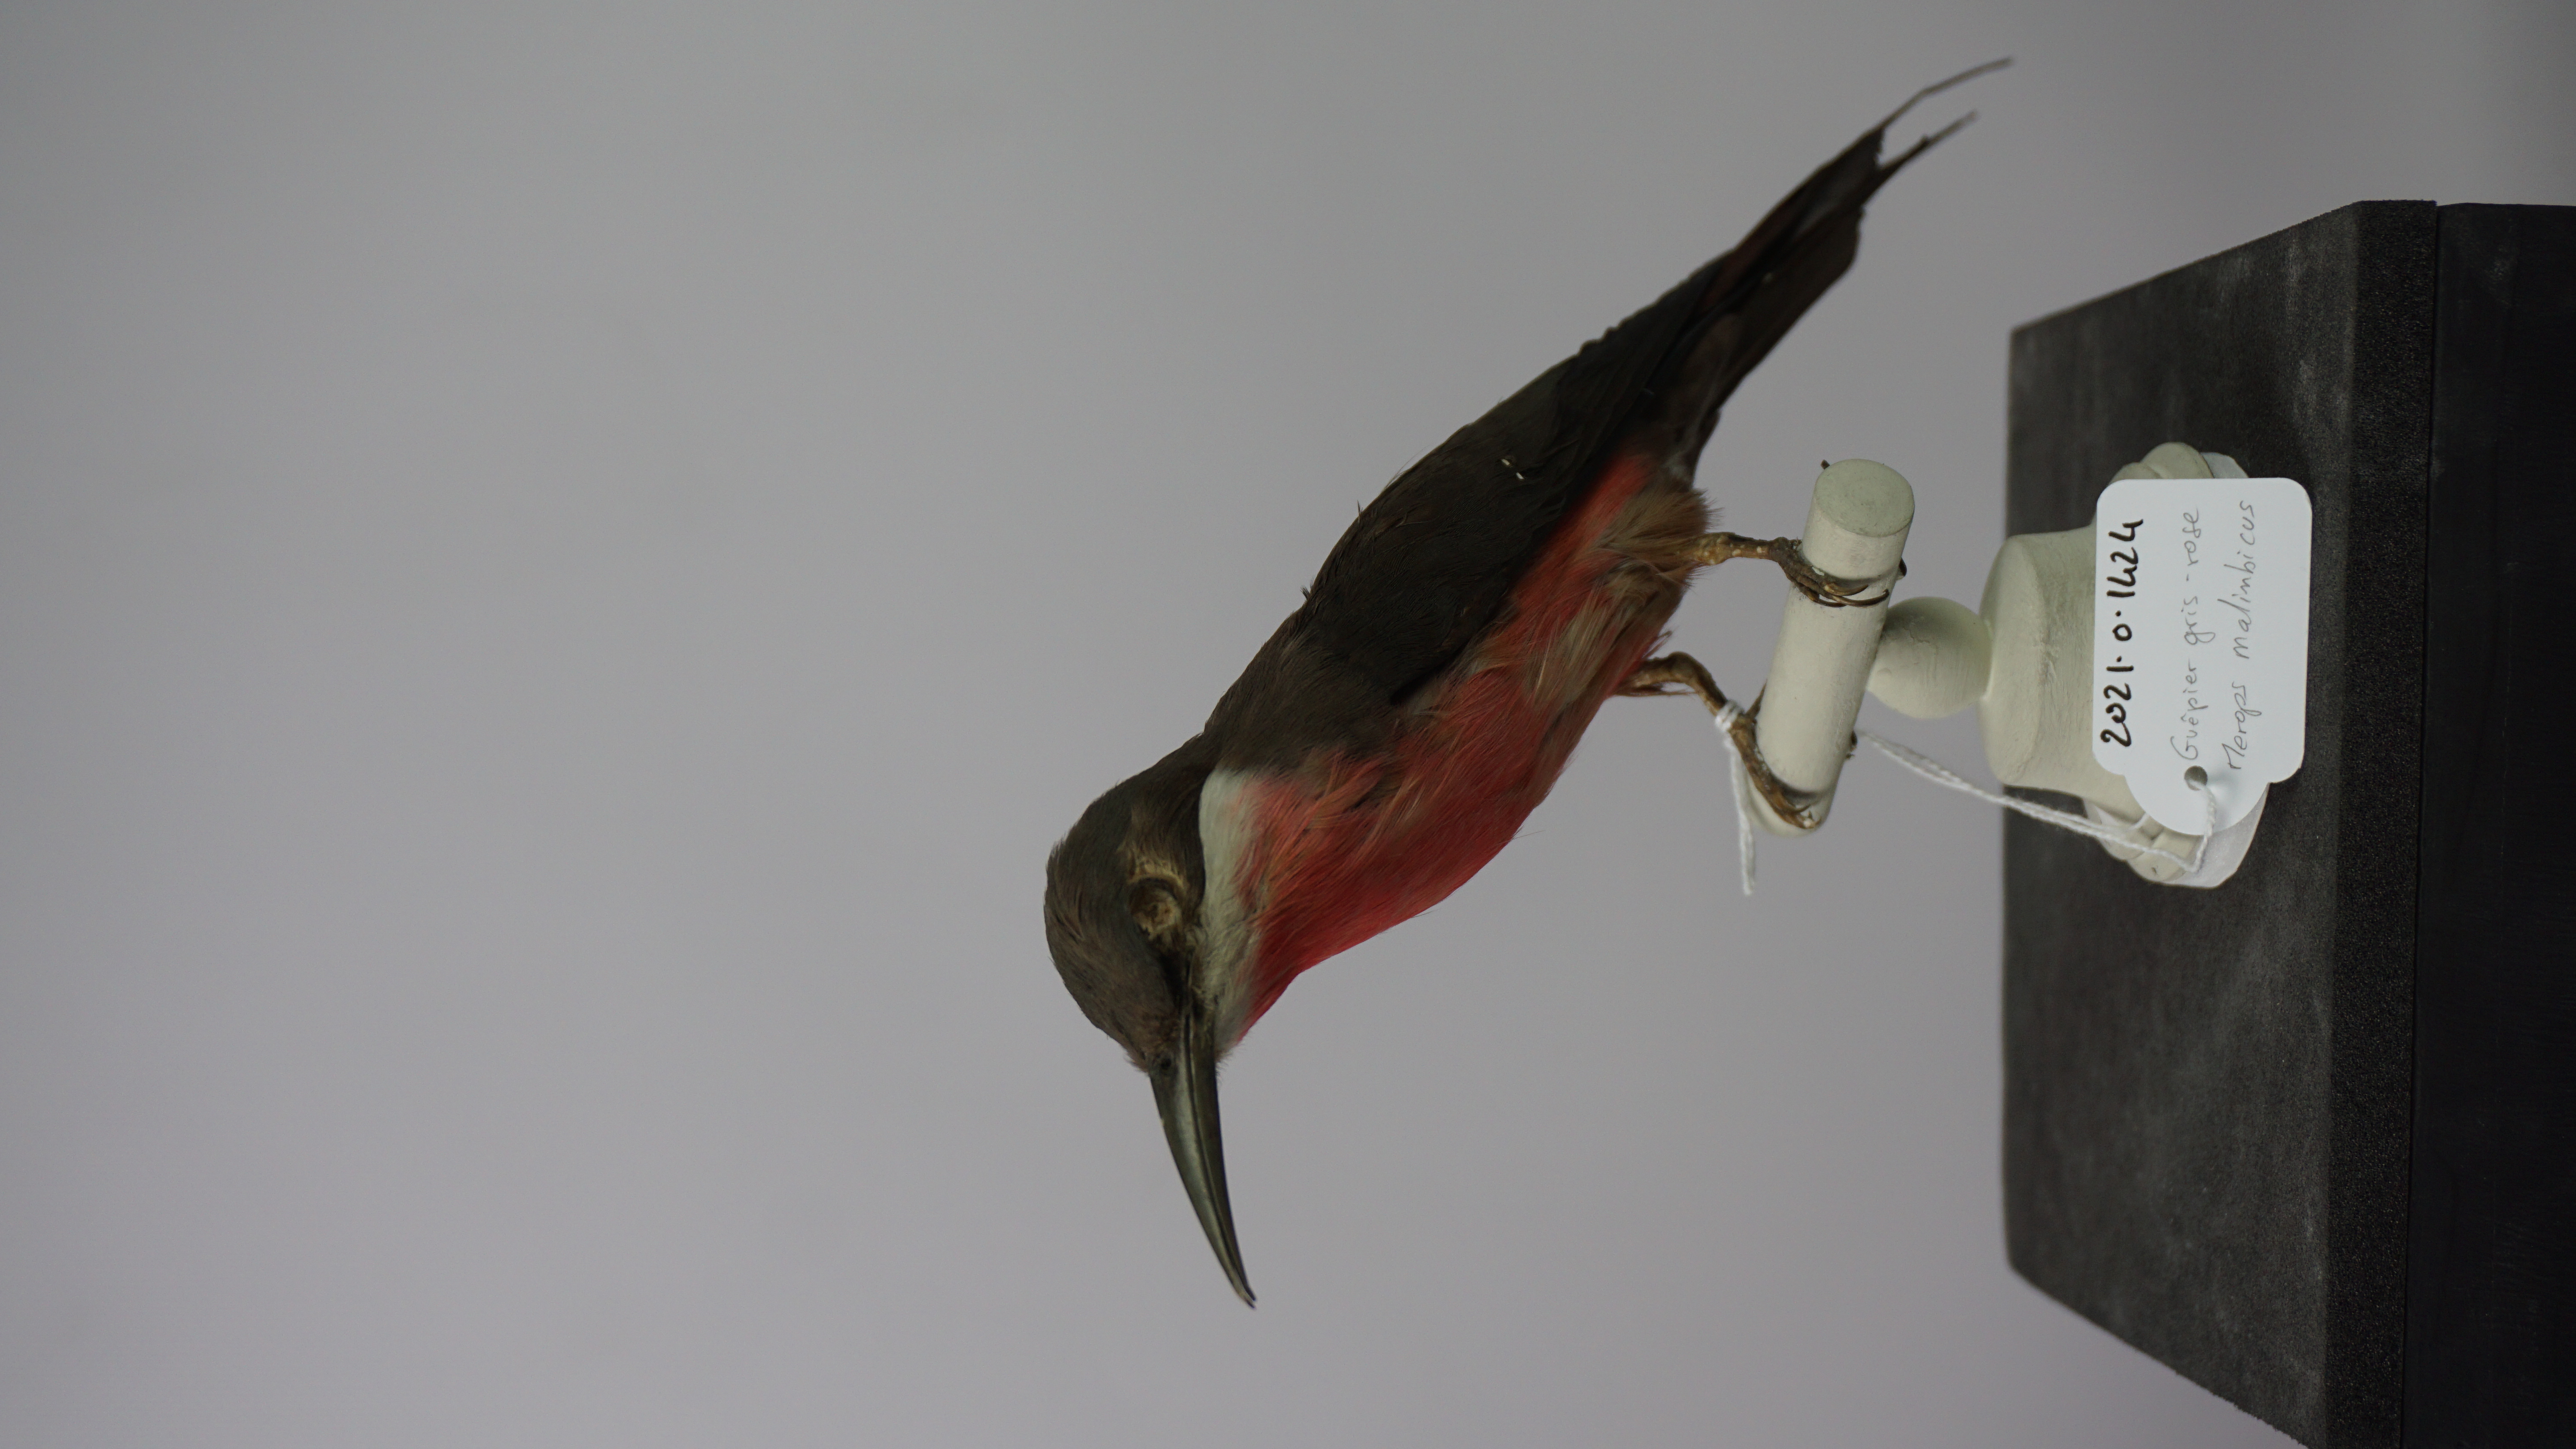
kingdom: Animalia
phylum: Chordata
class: Aves
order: Coraciiformes
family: Meropidae
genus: Merops
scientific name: Merops malimbicus
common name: Rosy bee-eater
